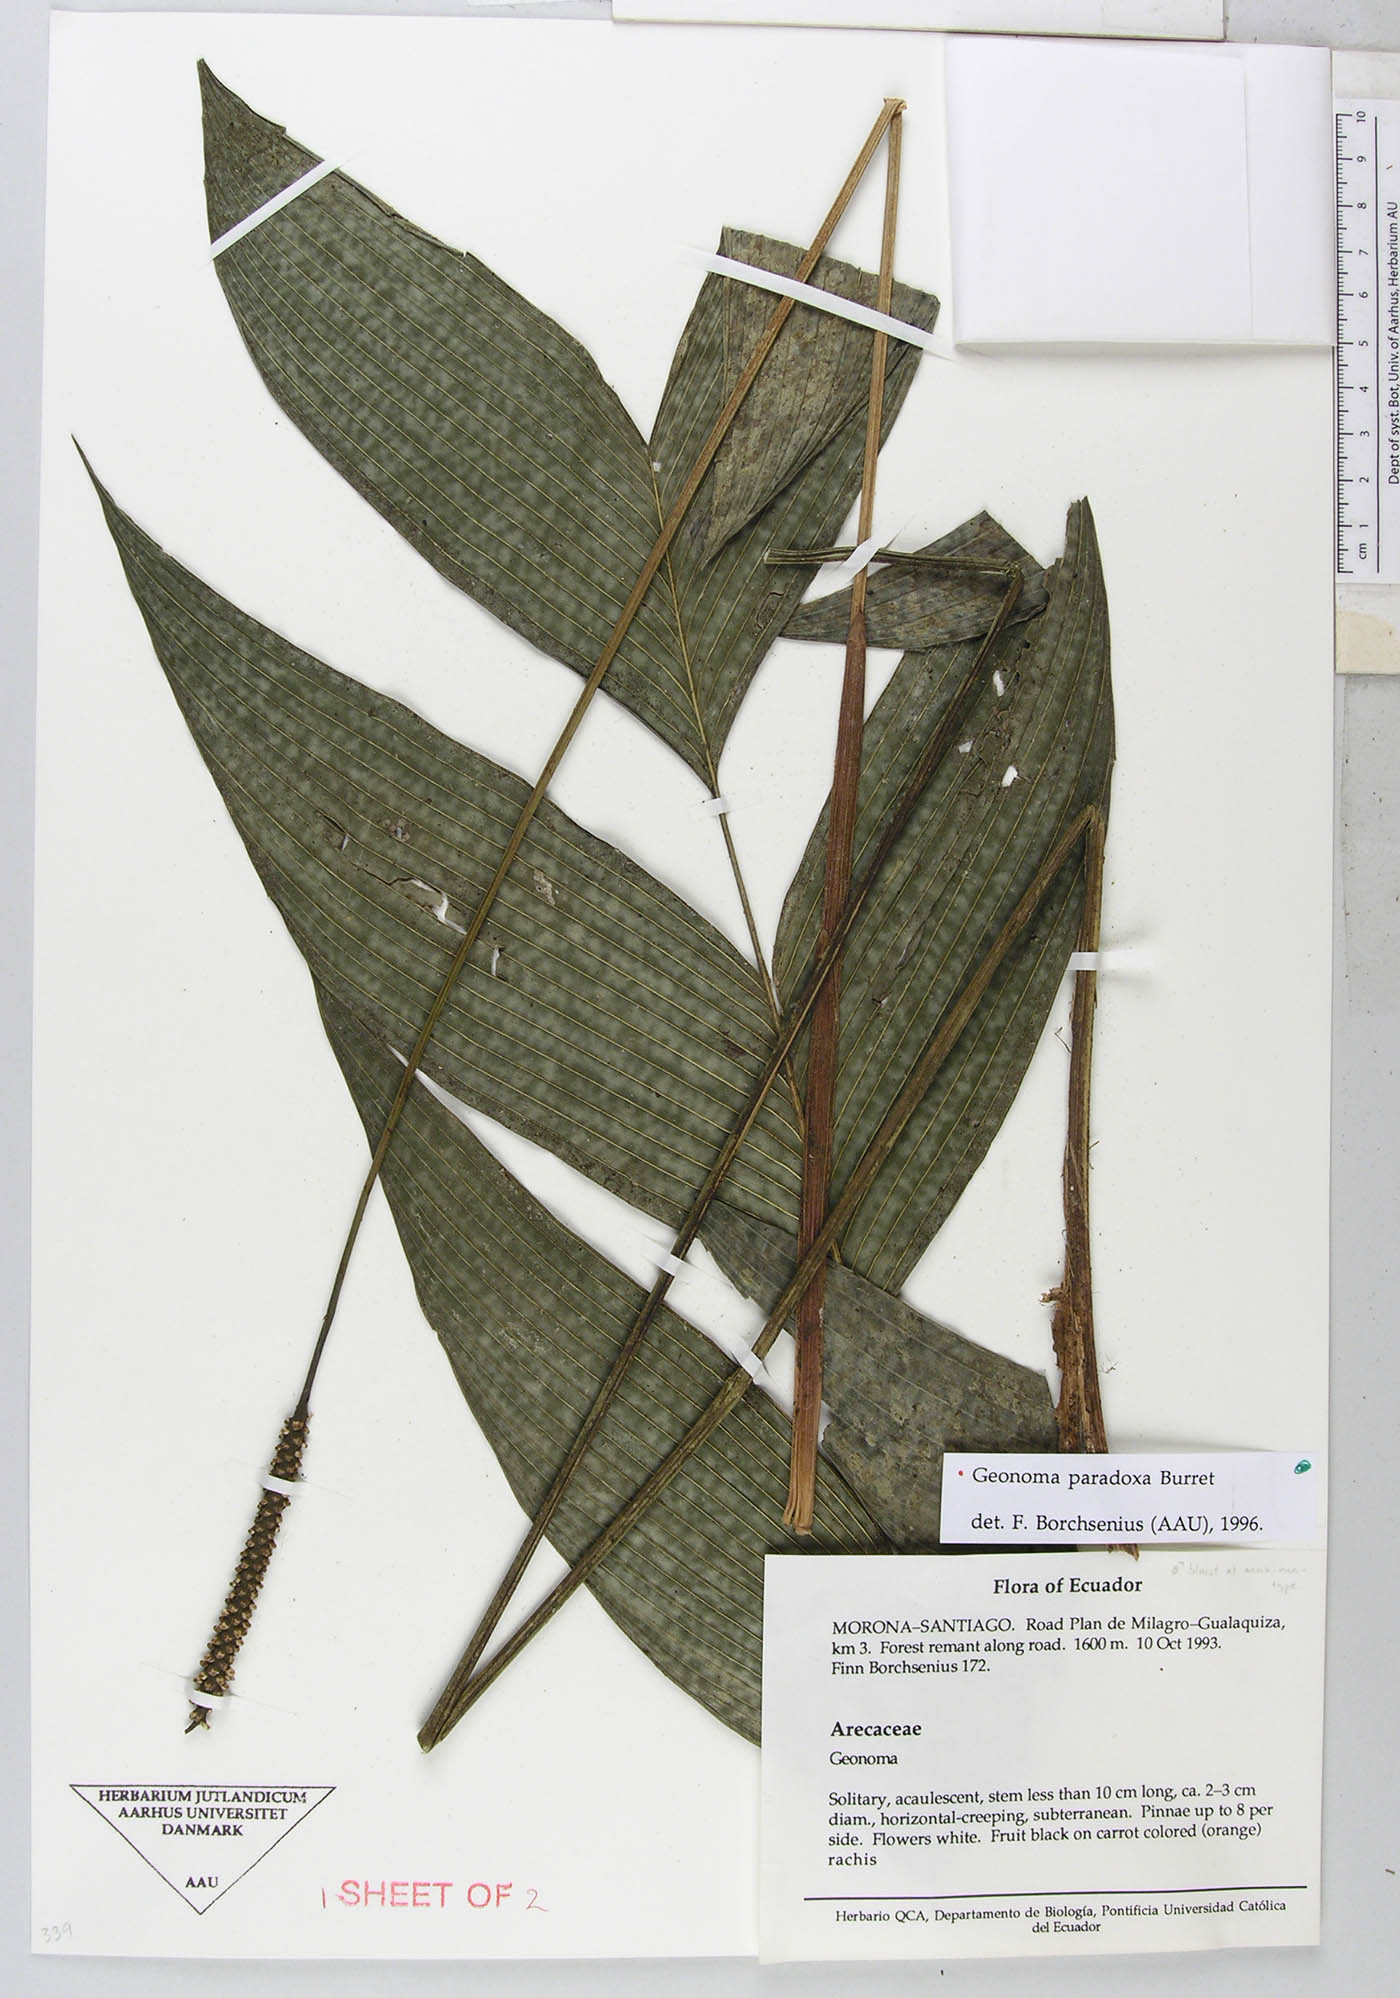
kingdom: Plantae
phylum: Tracheophyta
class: Liliopsida
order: Arecales
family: Arecaceae
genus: Geonoma
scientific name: Geonoma macrostachys
